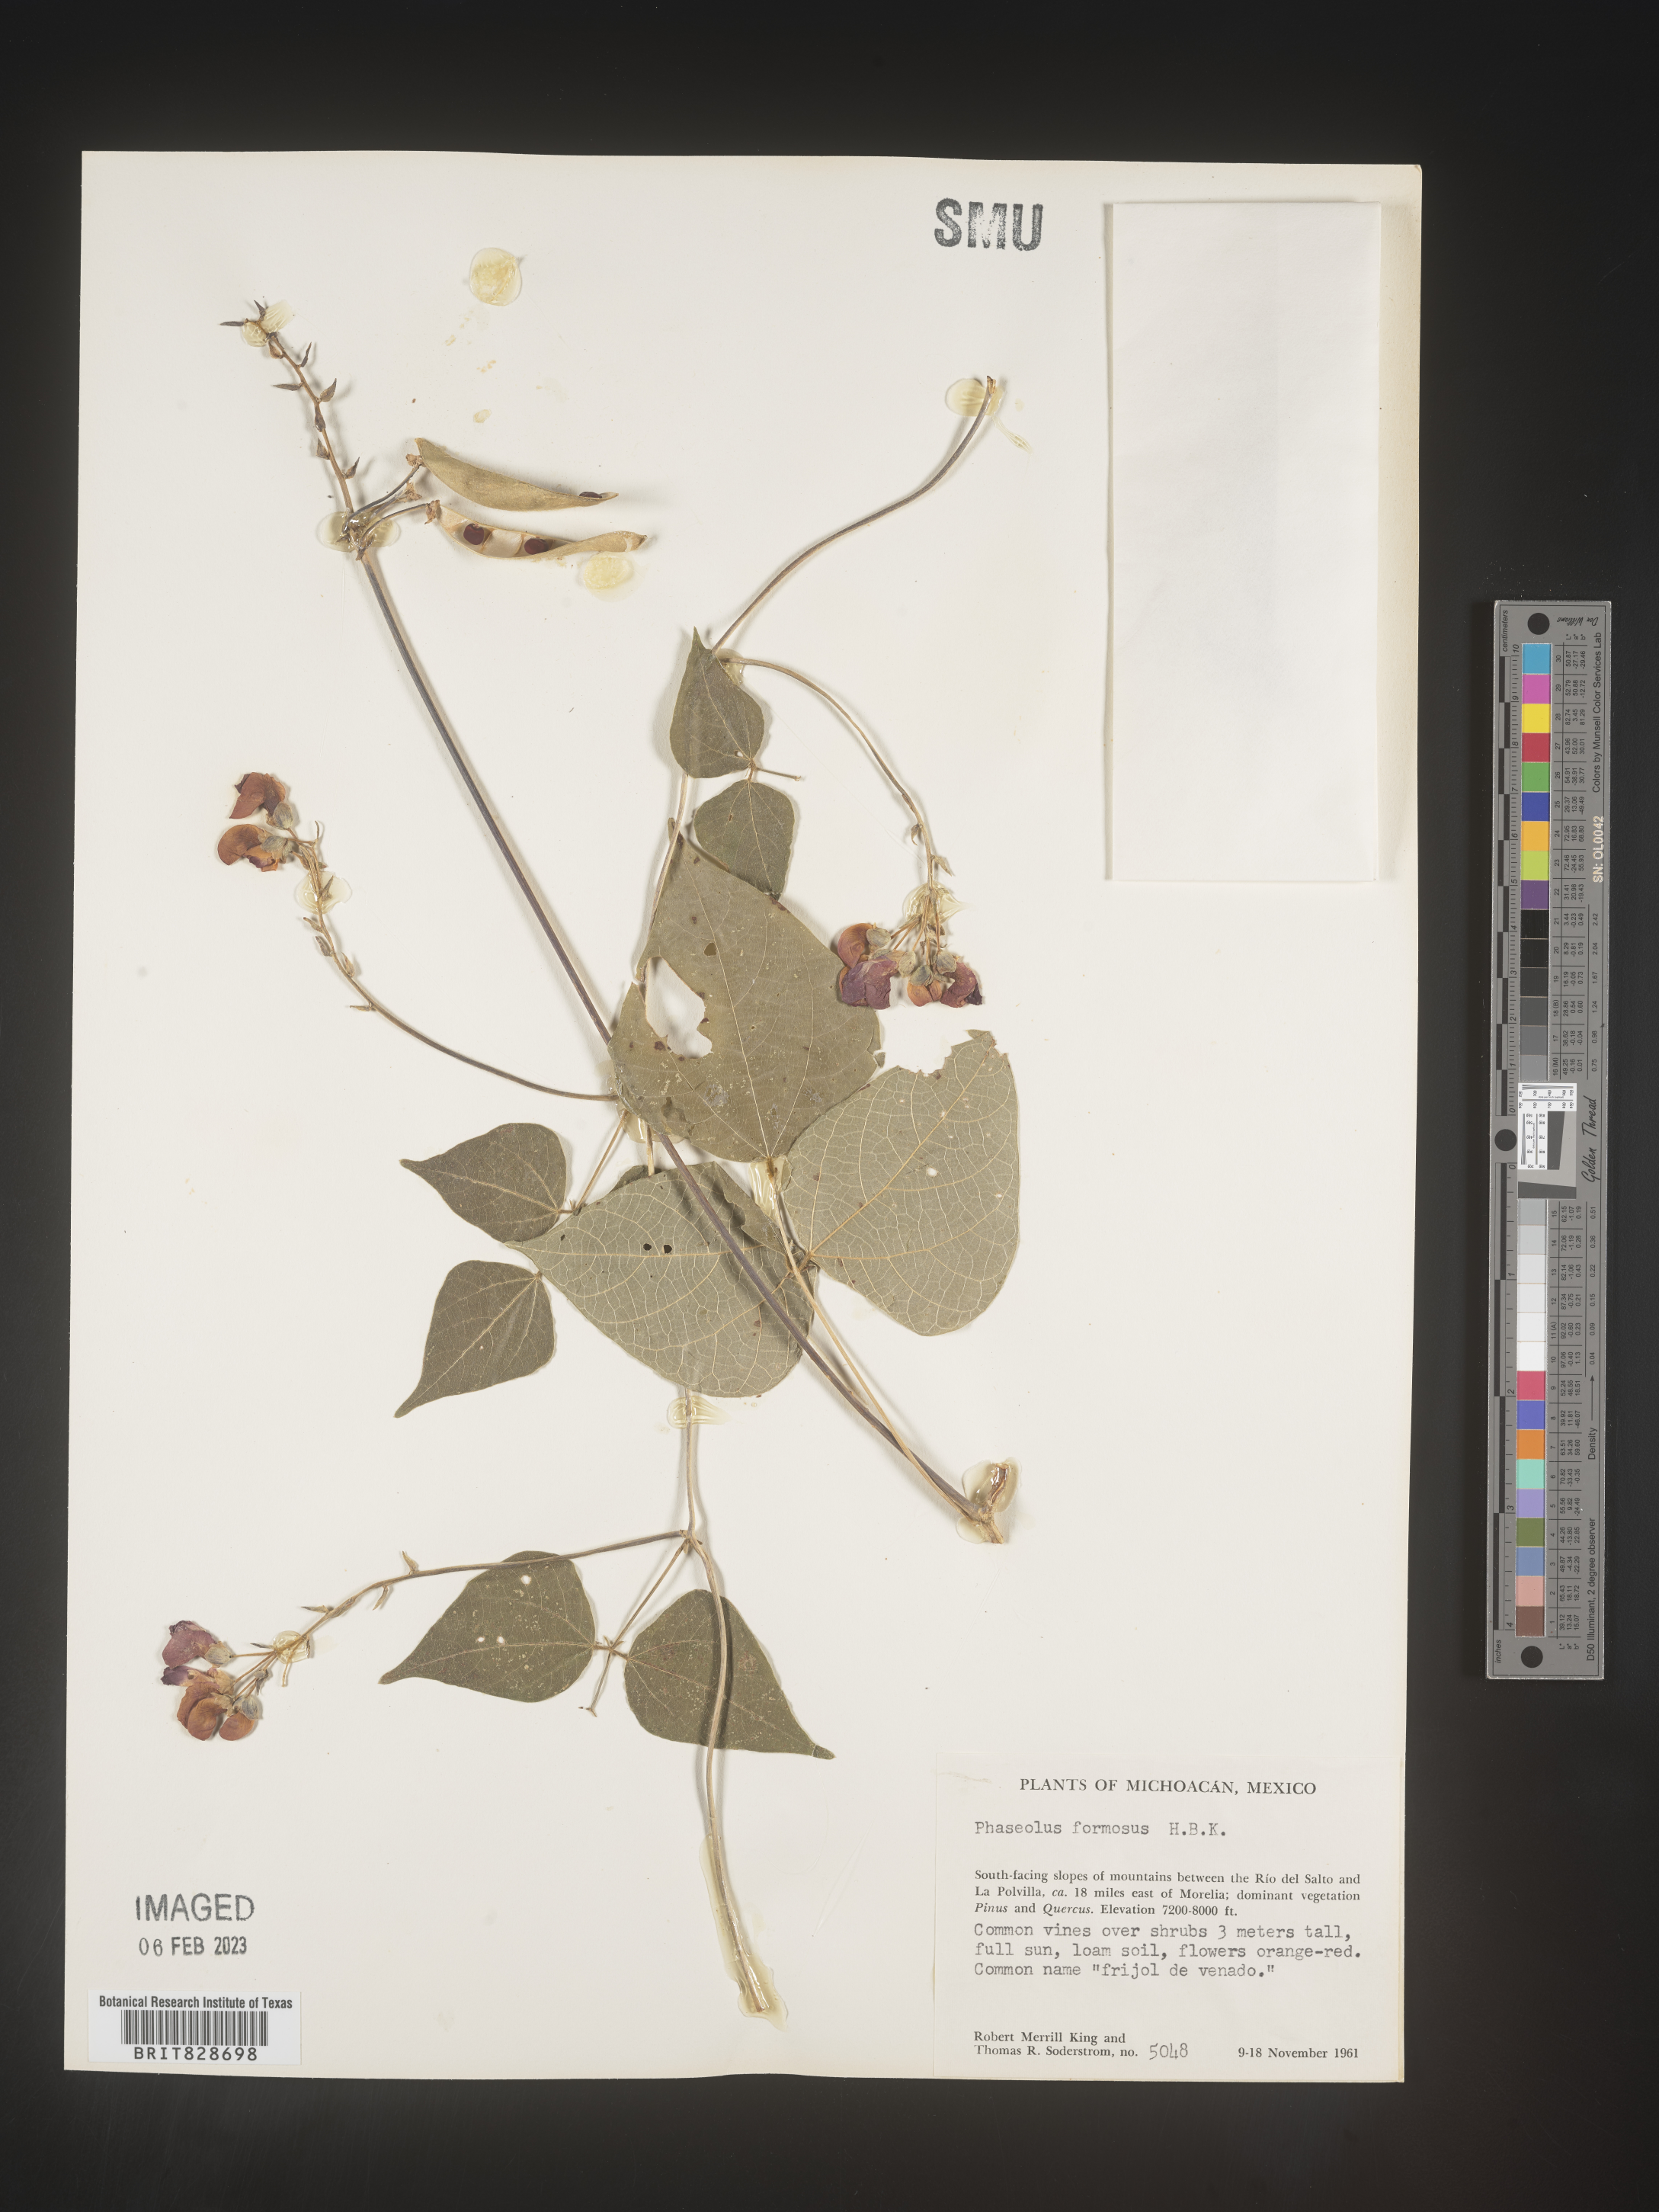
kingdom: Plantae
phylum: Tracheophyta
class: Magnoliopsida
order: Fabales
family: Fabaceae
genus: Phaseolus
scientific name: Phaseolus
